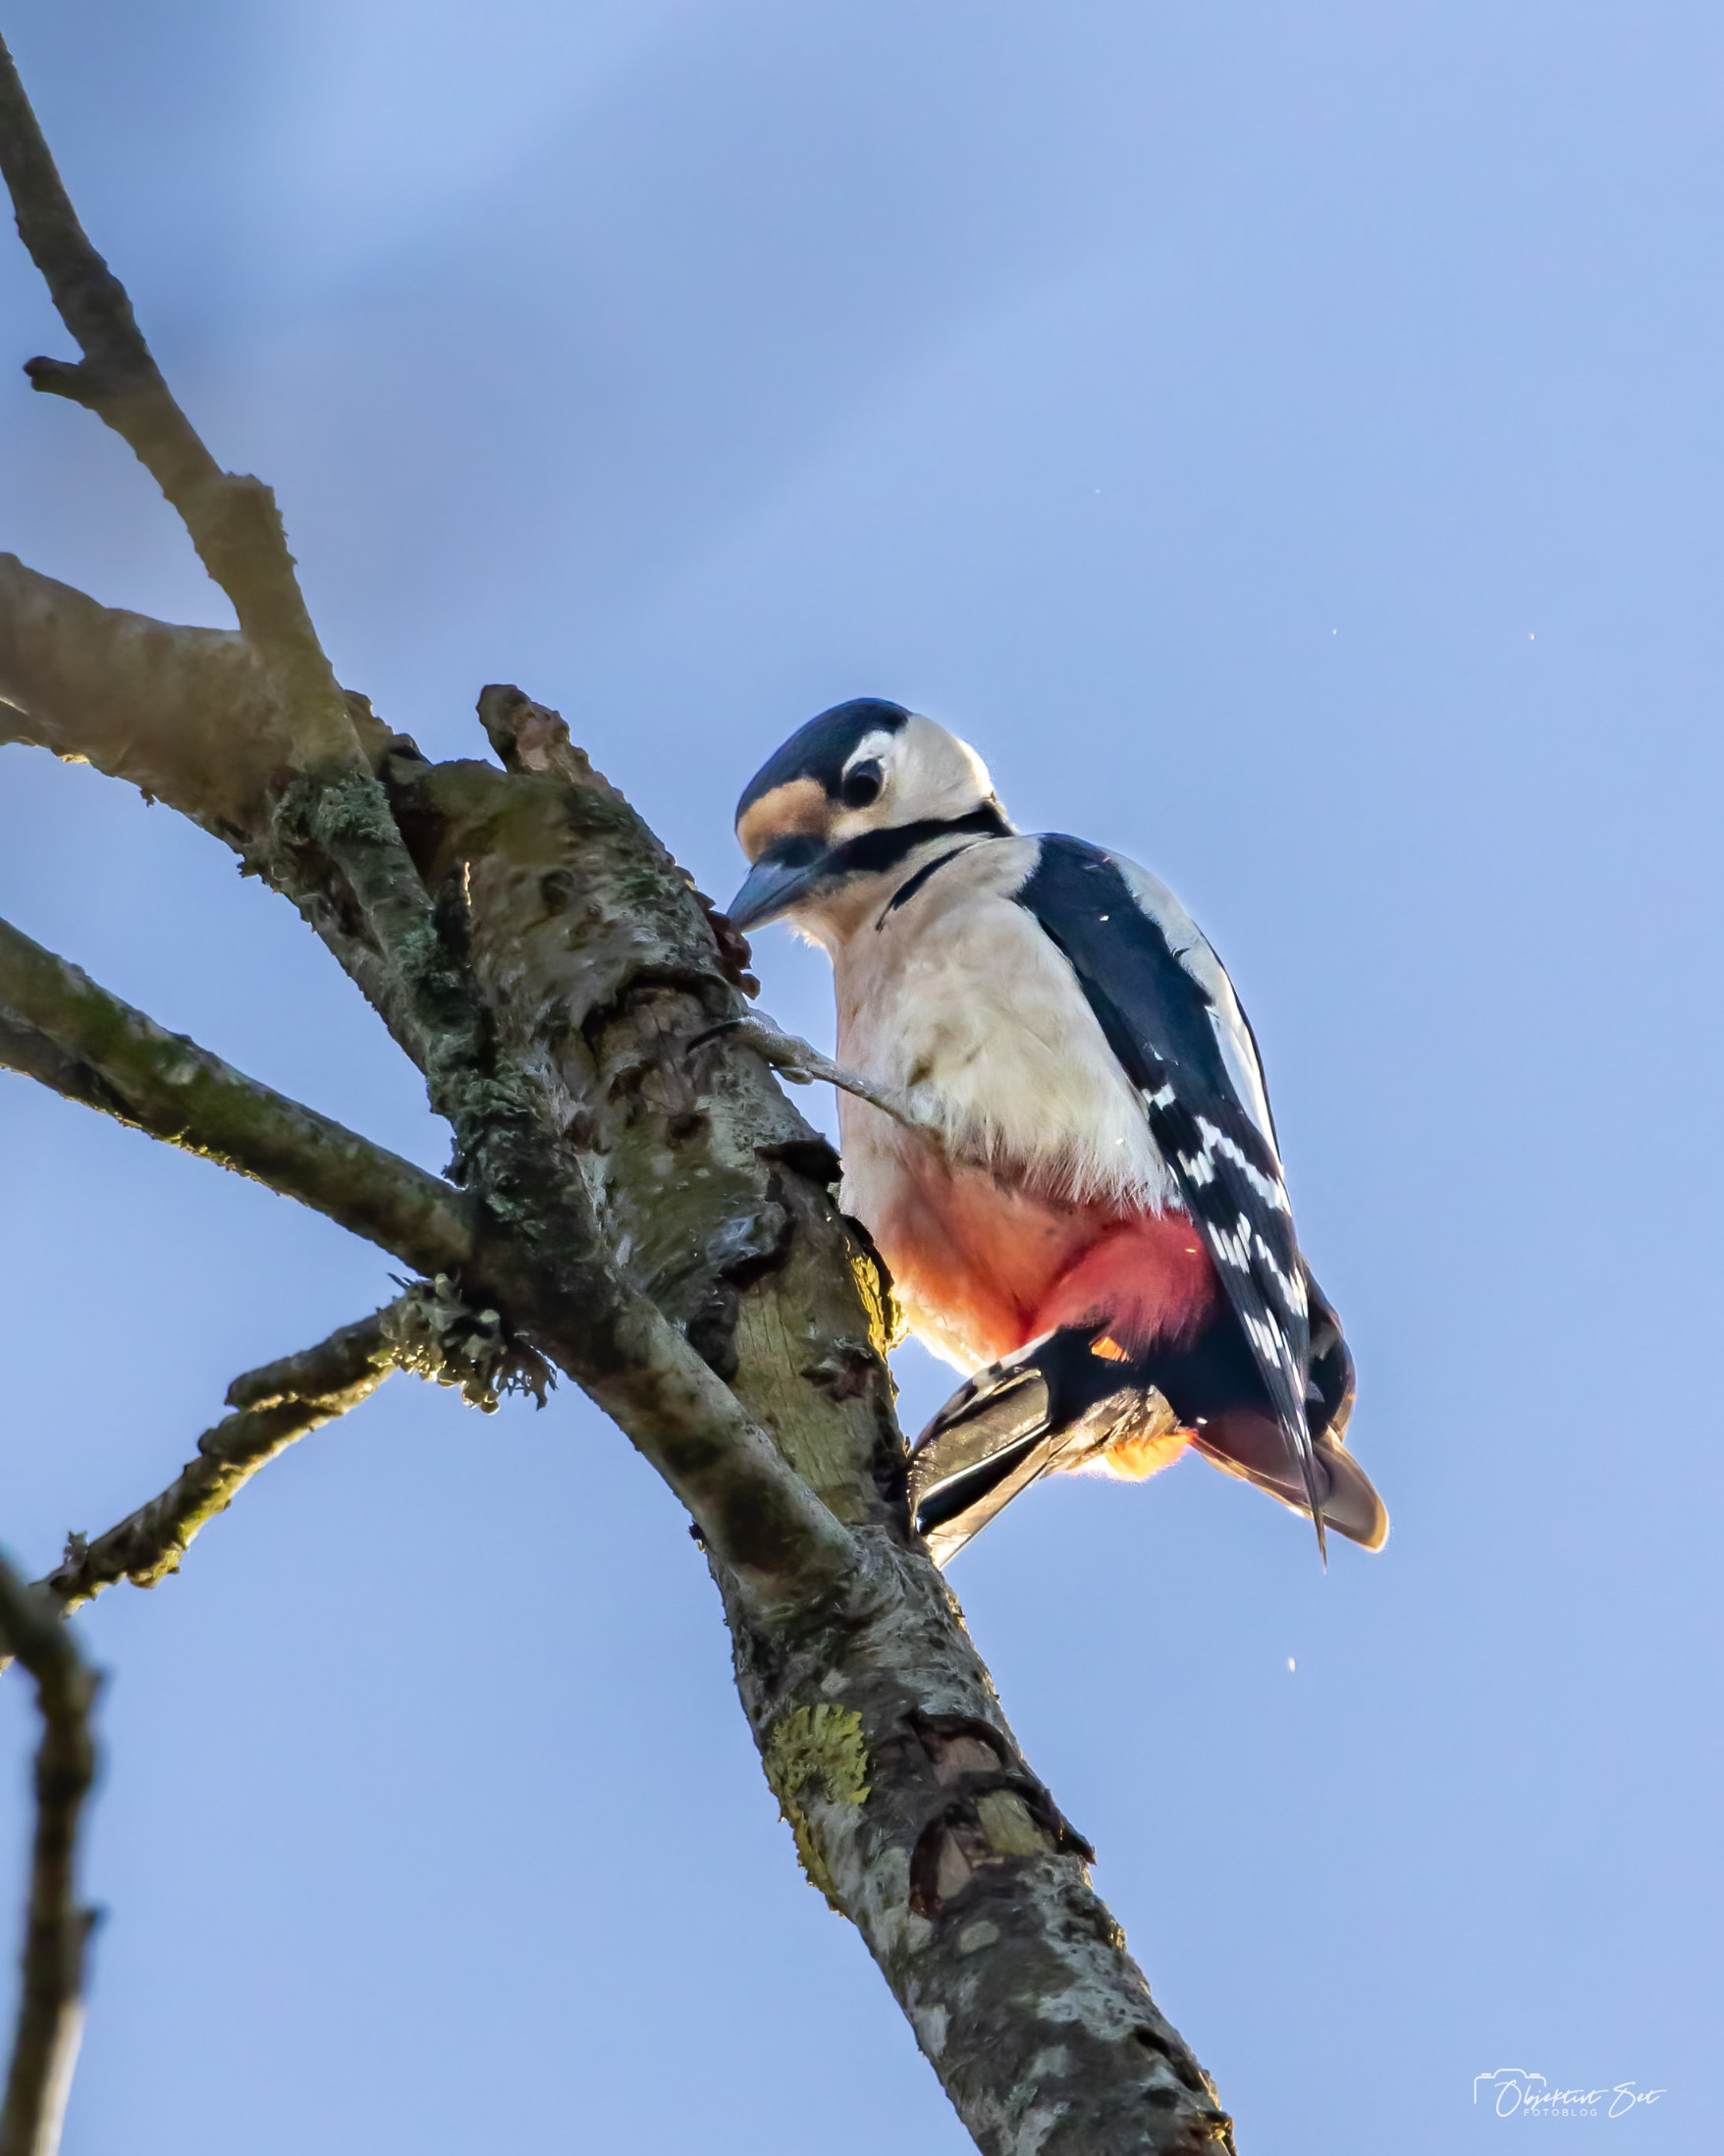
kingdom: Animalia
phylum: Chordata
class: Aves
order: Piciformes
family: Picidae
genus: Dendrocopos
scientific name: Dendrocopos major
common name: Stor flagspætte
